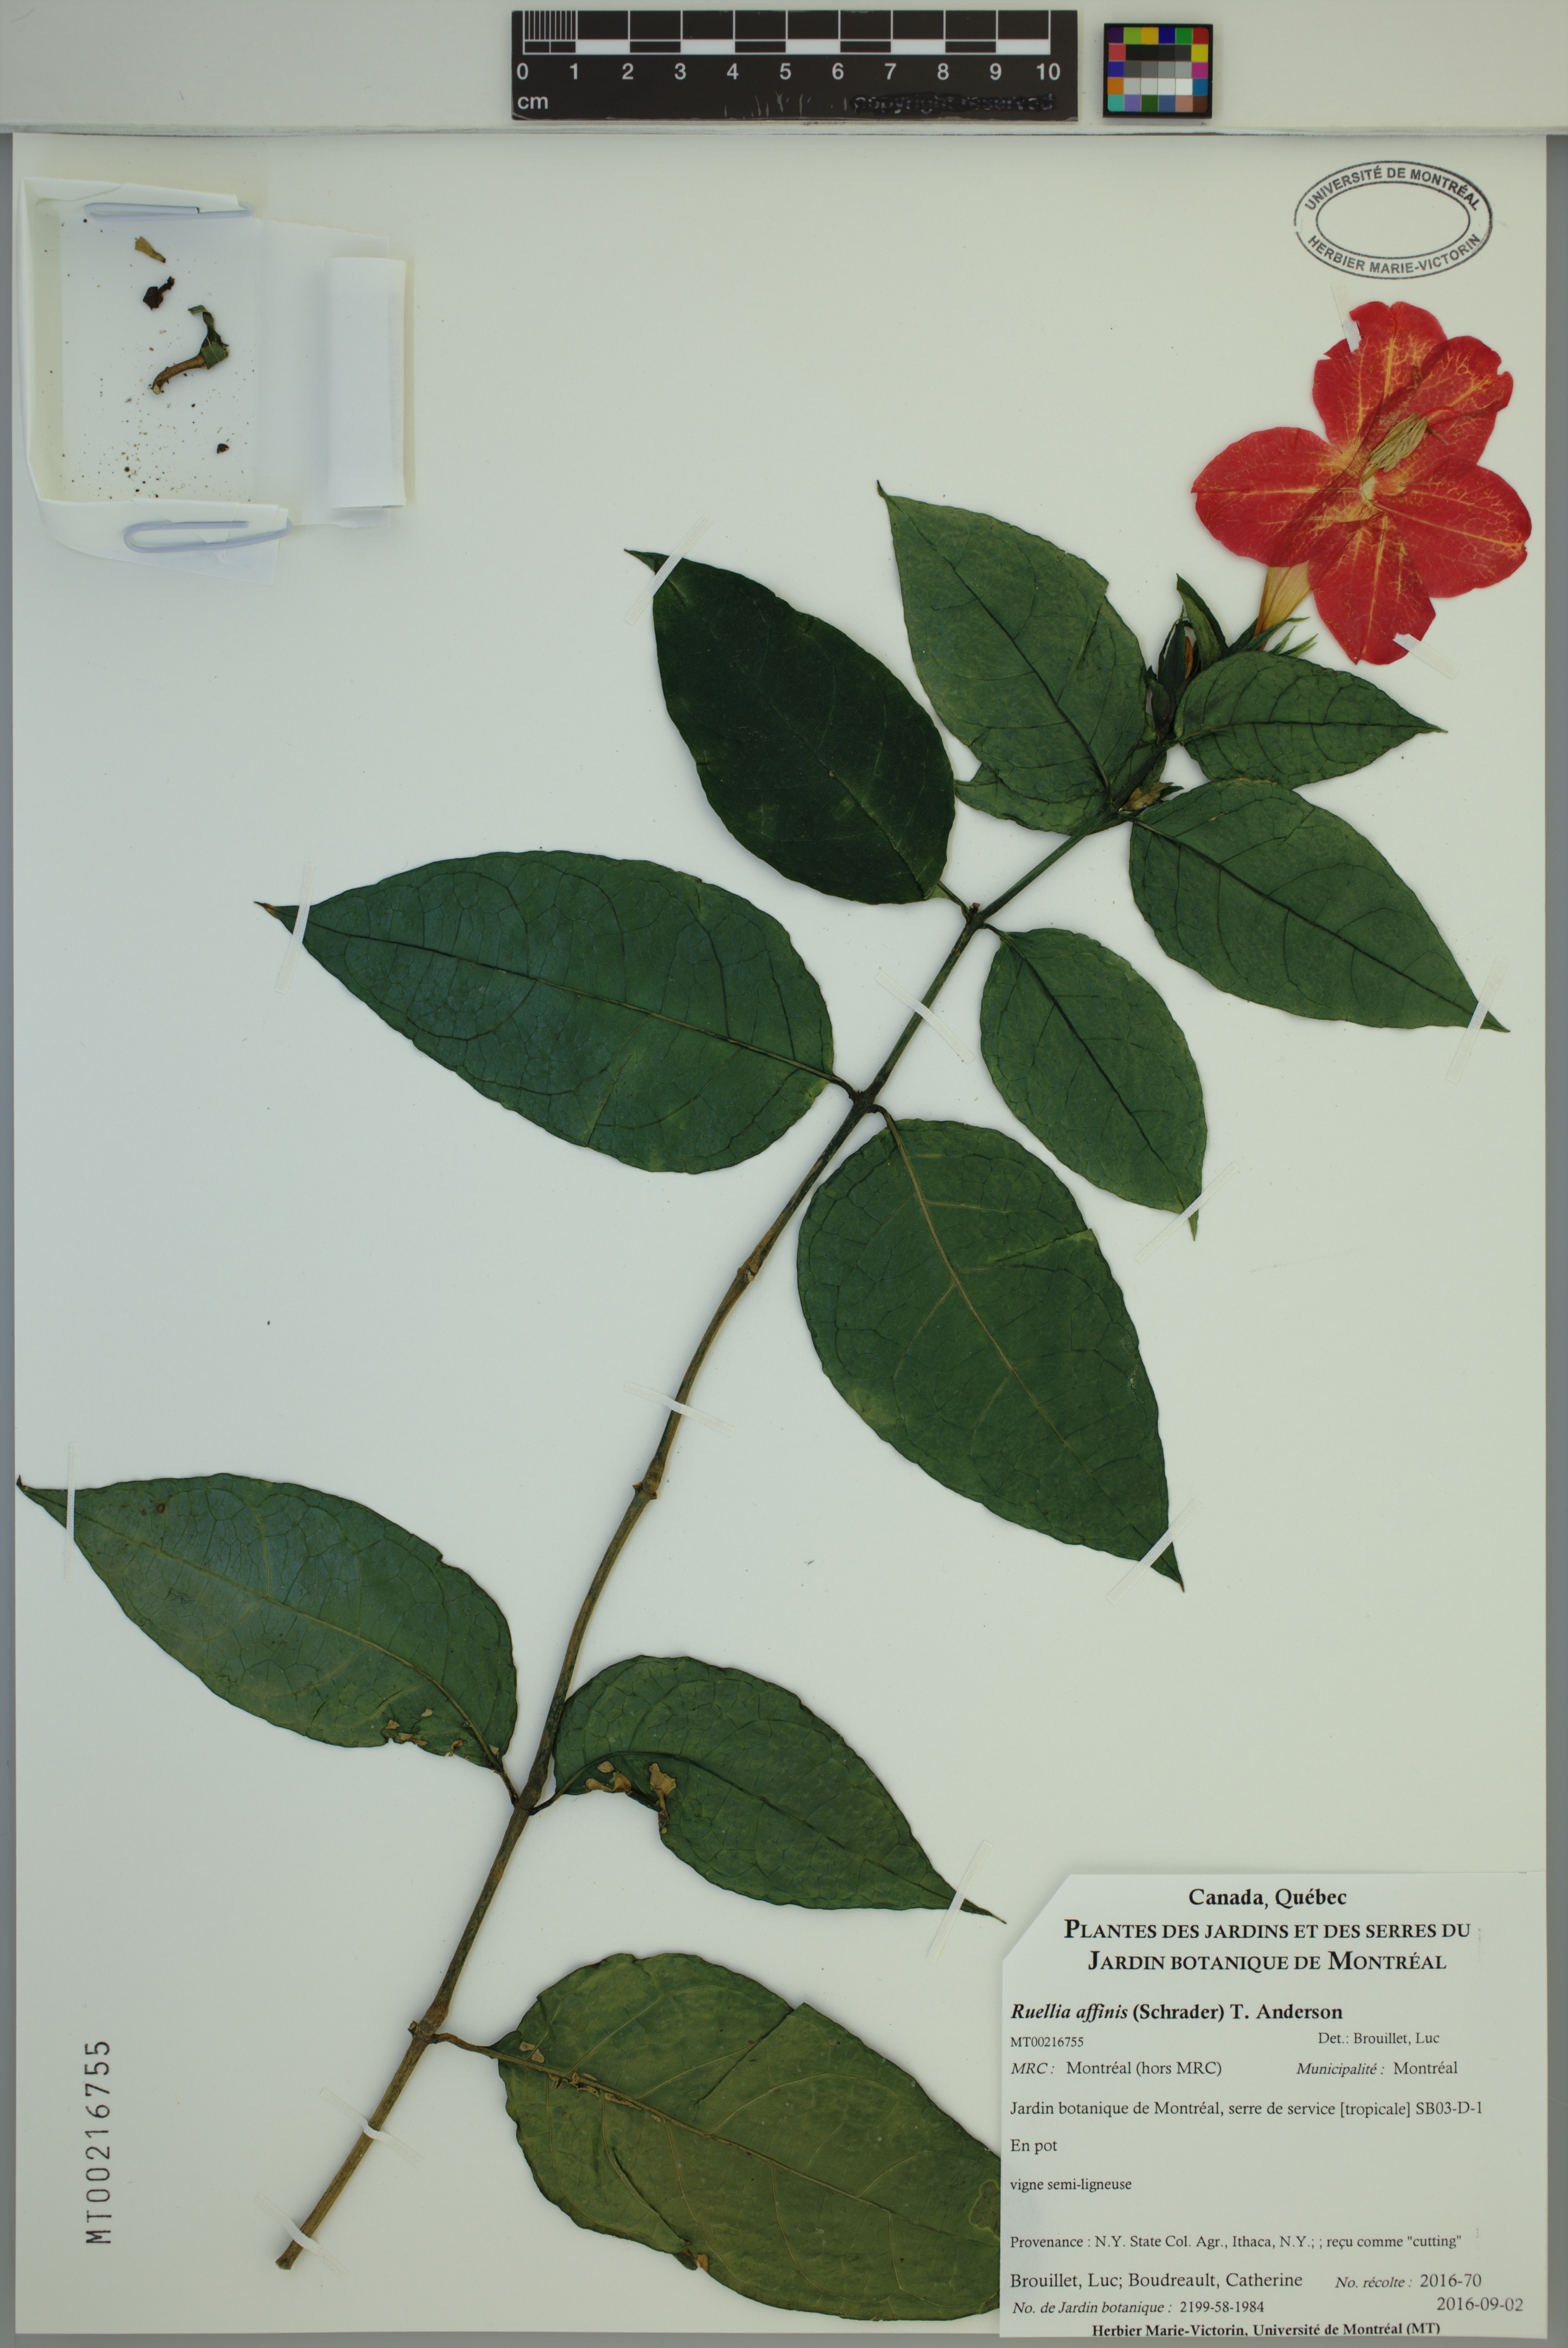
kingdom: Plantae
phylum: Tracheophyta
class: Magnoliopsida
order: Lamiales
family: Acanthaceae
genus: Ruellia
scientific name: Ruellia affinis
